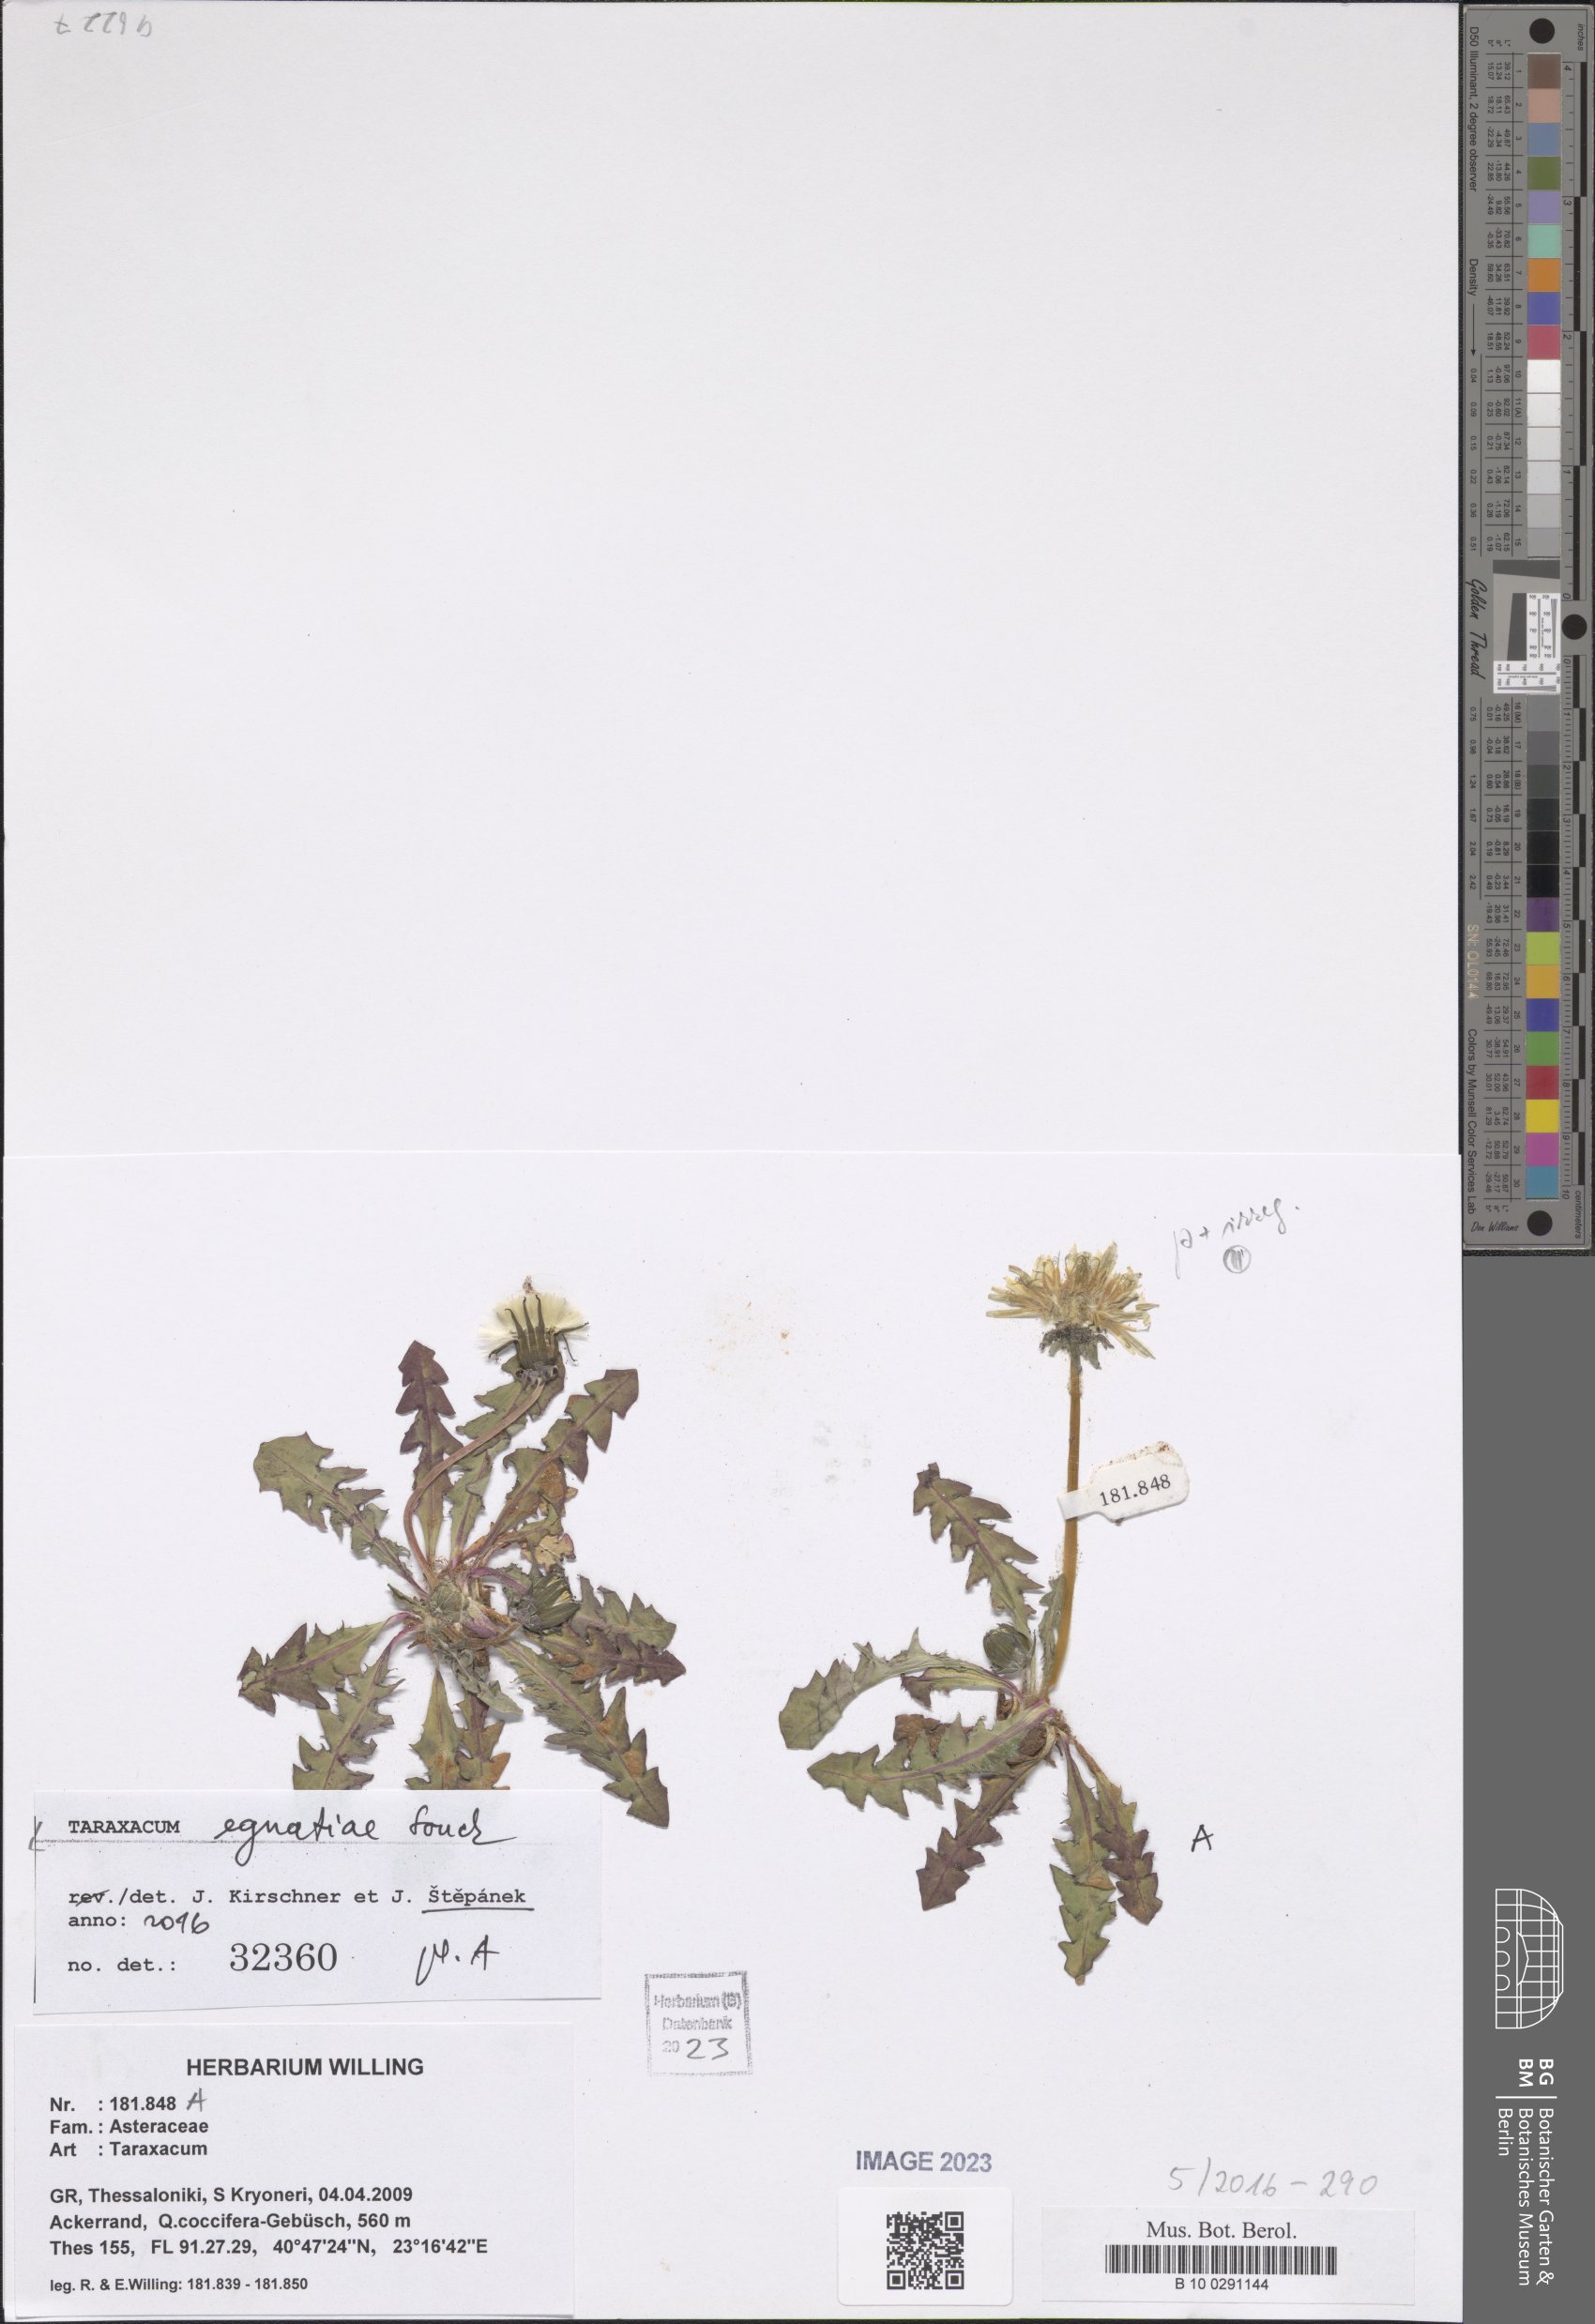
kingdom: Plantae
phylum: Tracheophyta
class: Magnoliopsida
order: Asterales
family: Asteraceae
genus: Taraxacum
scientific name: Taraxacum egnatiae
